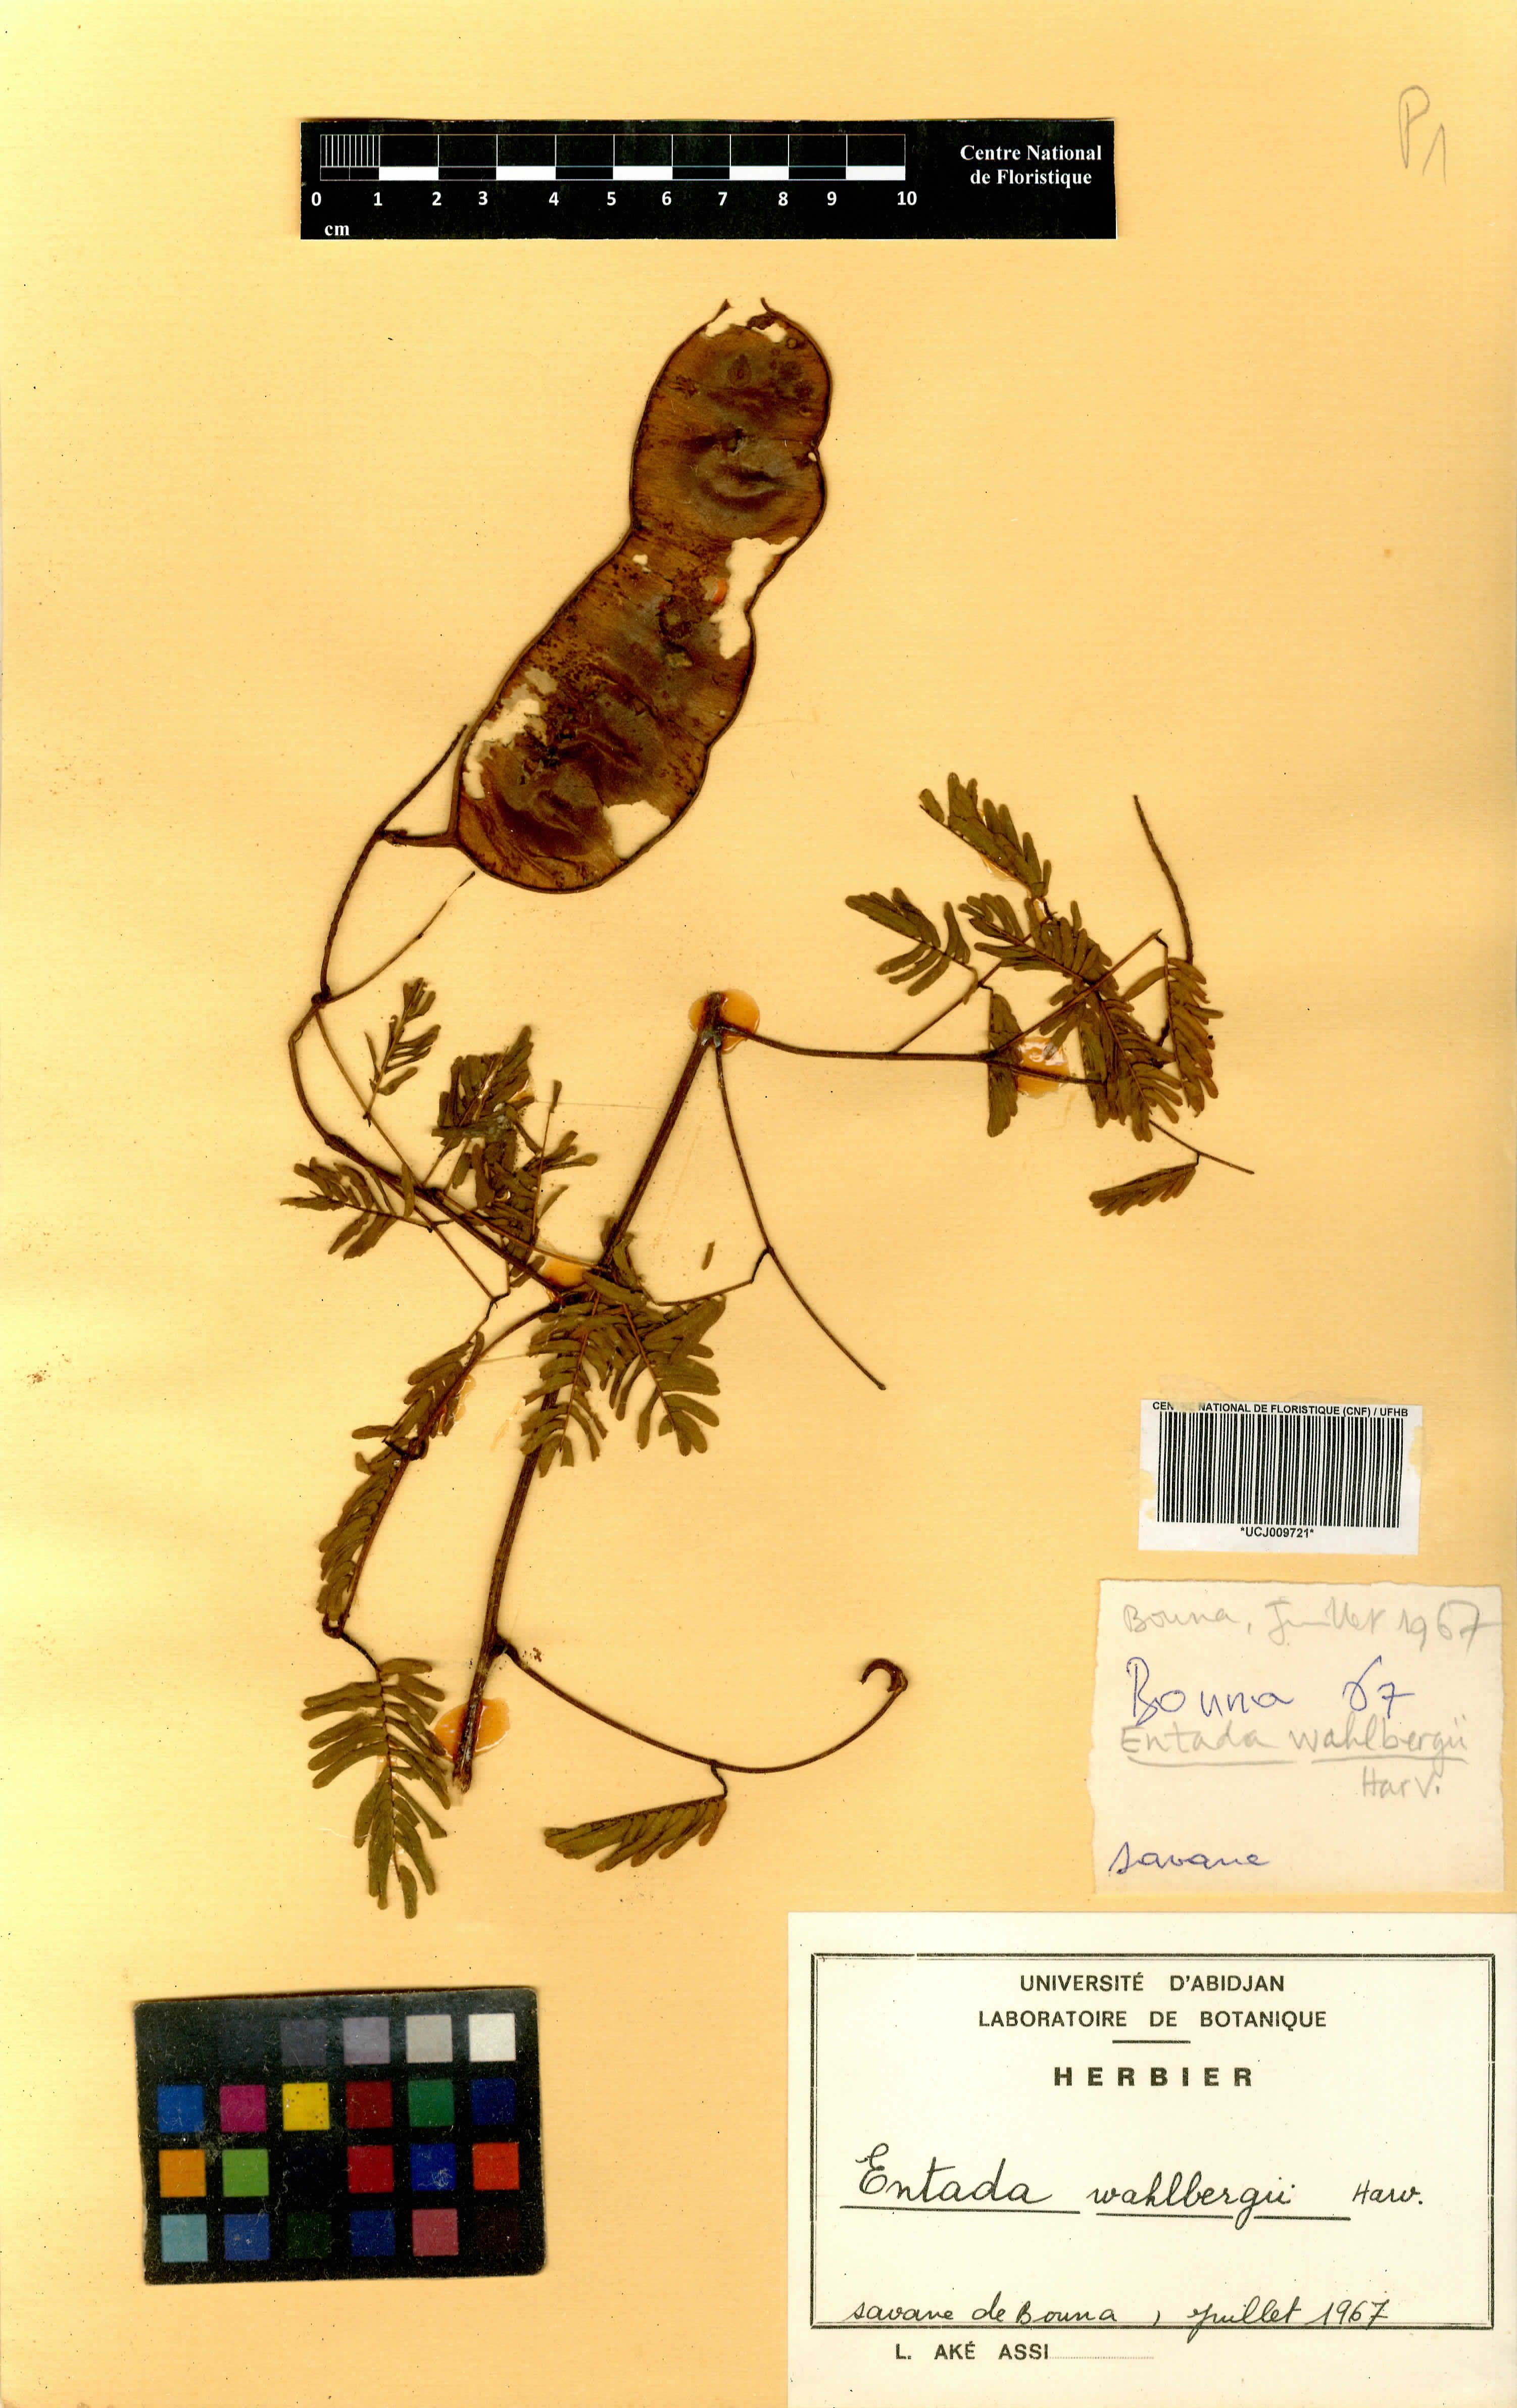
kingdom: Plantae
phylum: Tracheophyta
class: Magnoliopsida
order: Fabales
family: Fabaceae
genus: Entada
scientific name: Entada wahlbergii
